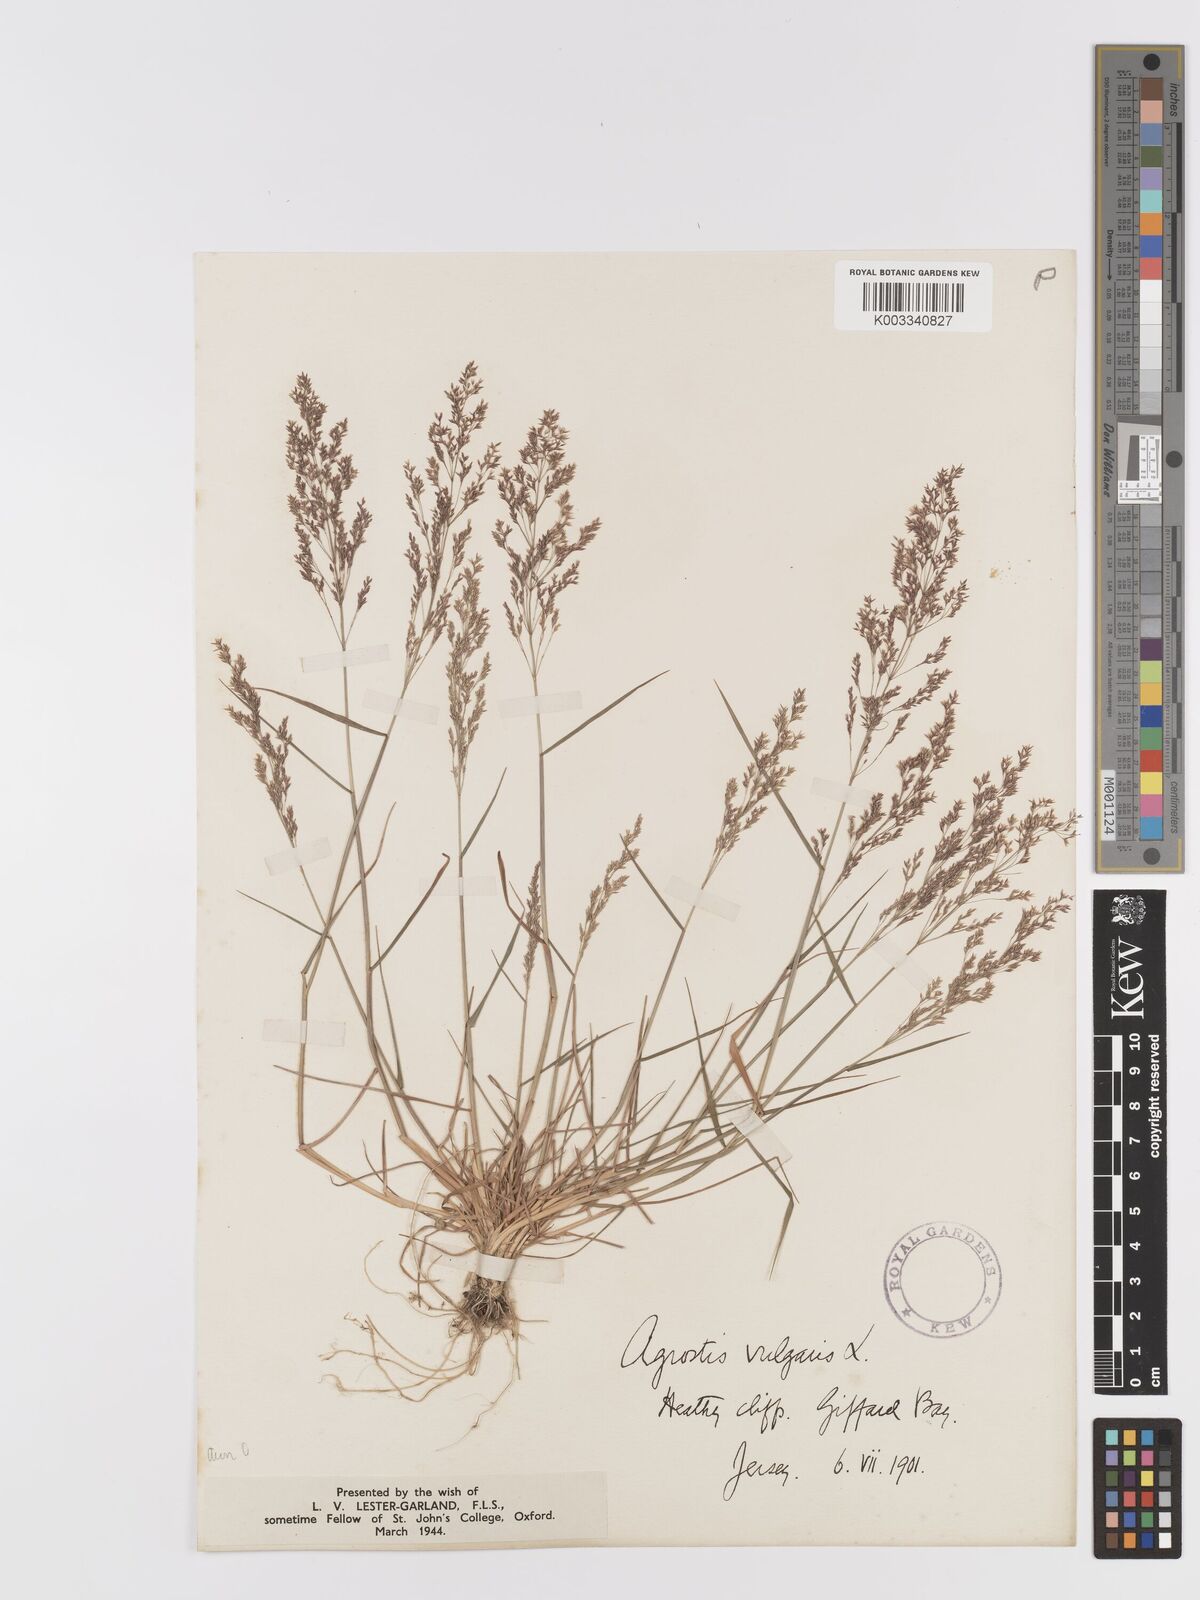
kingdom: Plantae
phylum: Tracheophyta
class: Liliopsida
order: Poales
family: Poaceae
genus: Agrostis
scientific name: Agrostis capillaris
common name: Colonial bentgrass
